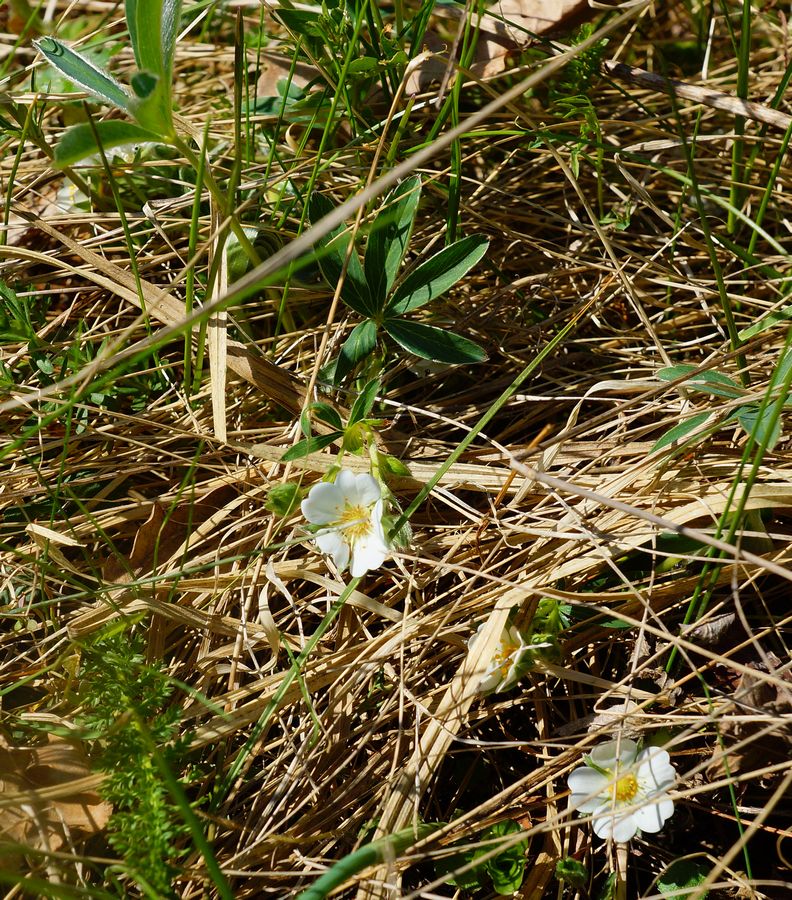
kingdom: Plantae
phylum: Tracheophyta
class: Magnoliopsida
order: Rosales
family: Rosaceae
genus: Potentilla
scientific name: Potentilla alba
